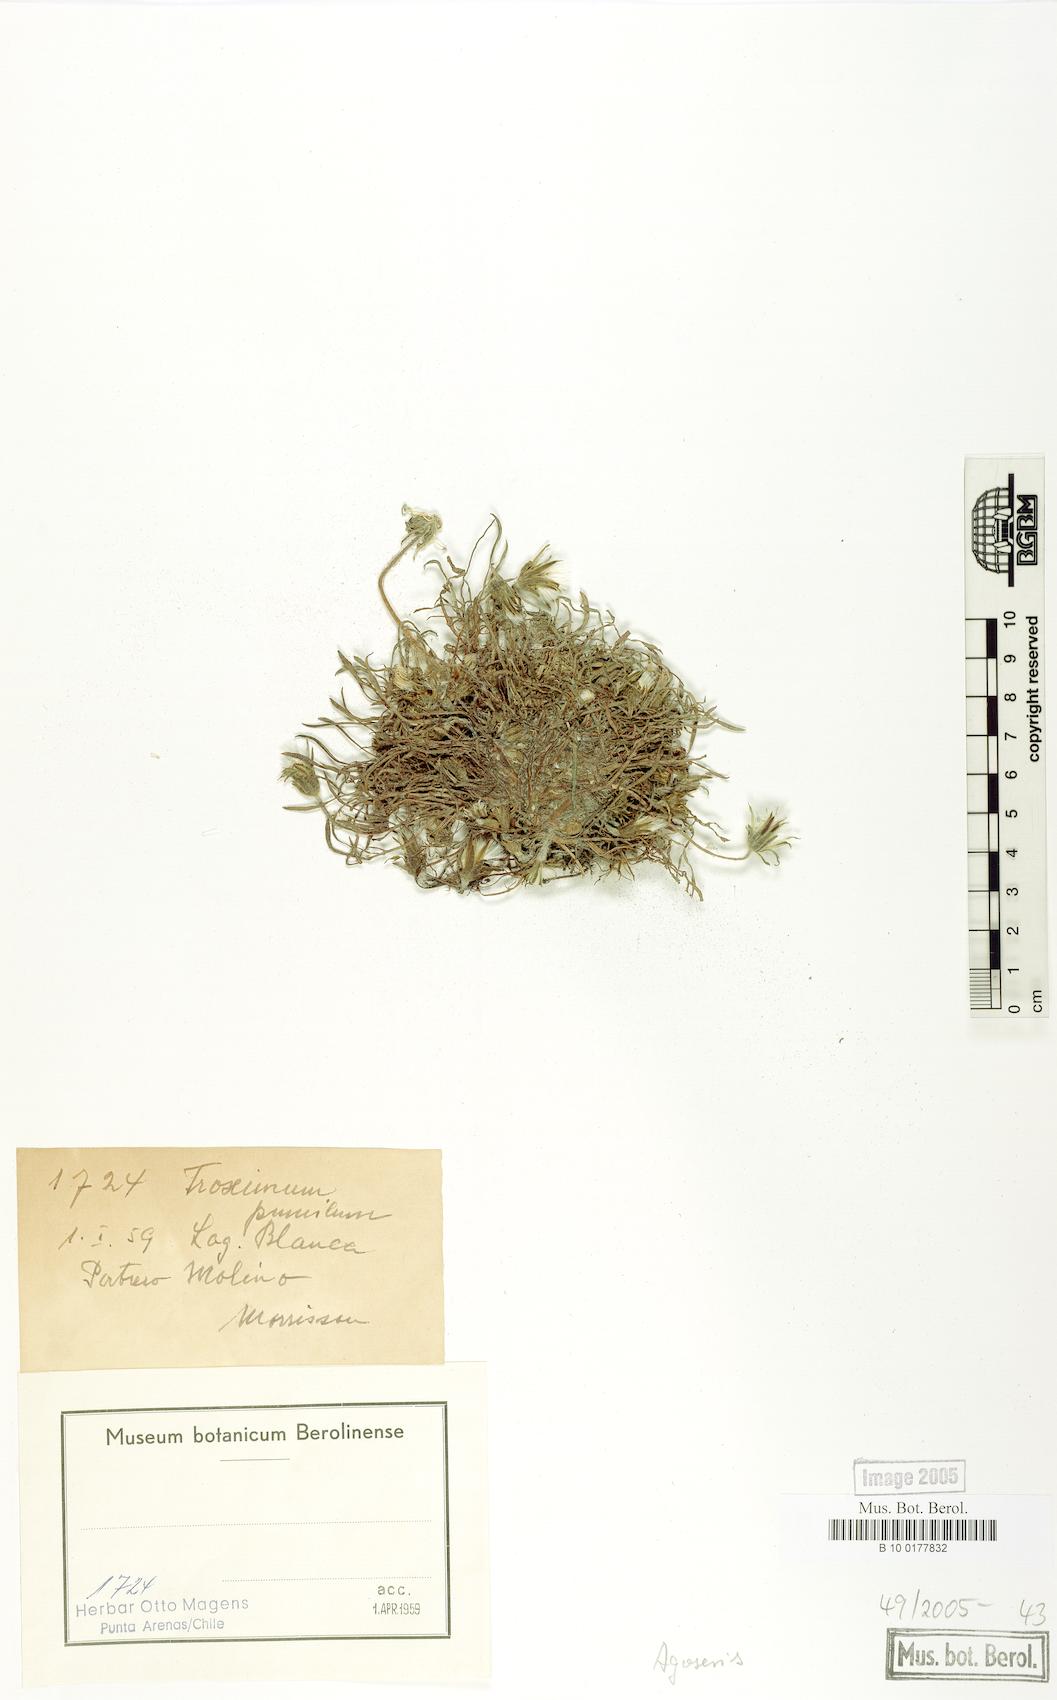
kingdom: Plantae
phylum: Tracheophyta
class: Magnoliopsida
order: Asterales
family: Asteraceae
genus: Agoseris
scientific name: Agoseris glauca
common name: Prairie agoseris
